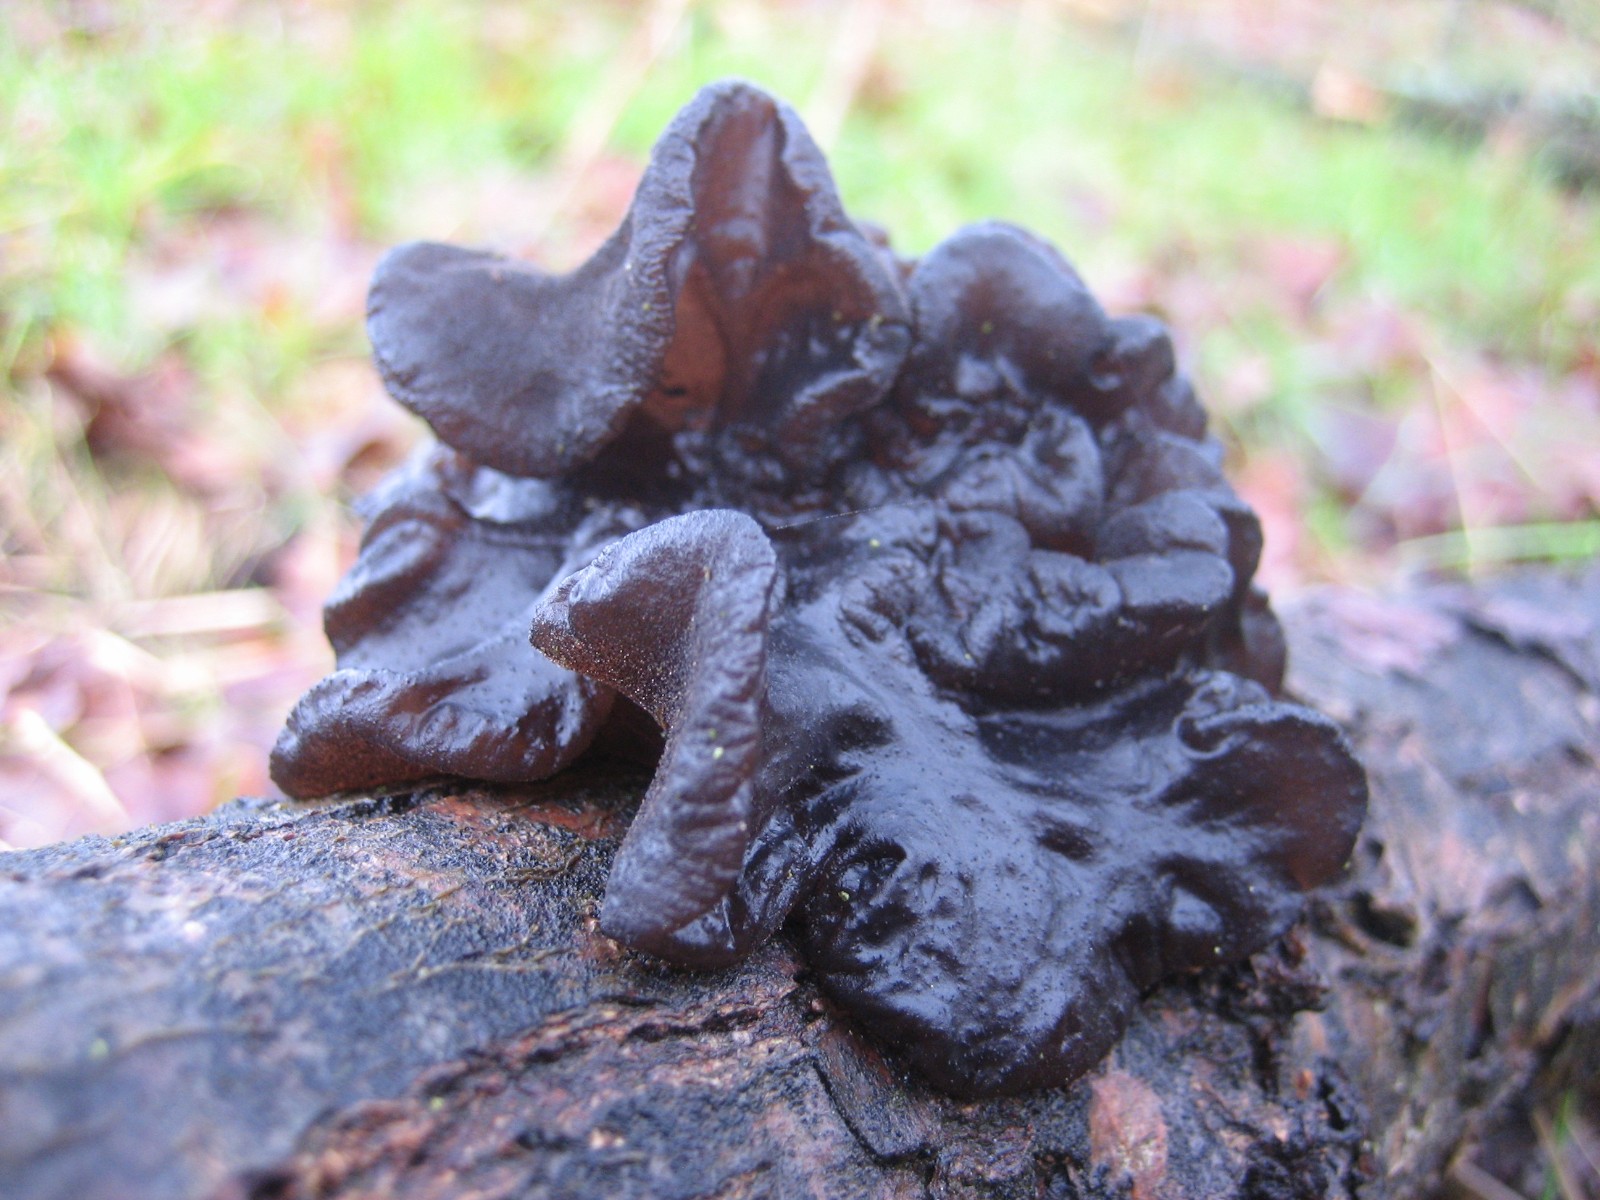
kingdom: Fungi
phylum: Basidiomycota
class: Agaricomycetes
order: Auriculariales
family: Auriculariaceae
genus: Exidia
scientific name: Exidia glandulosa
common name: ege-bævretop
